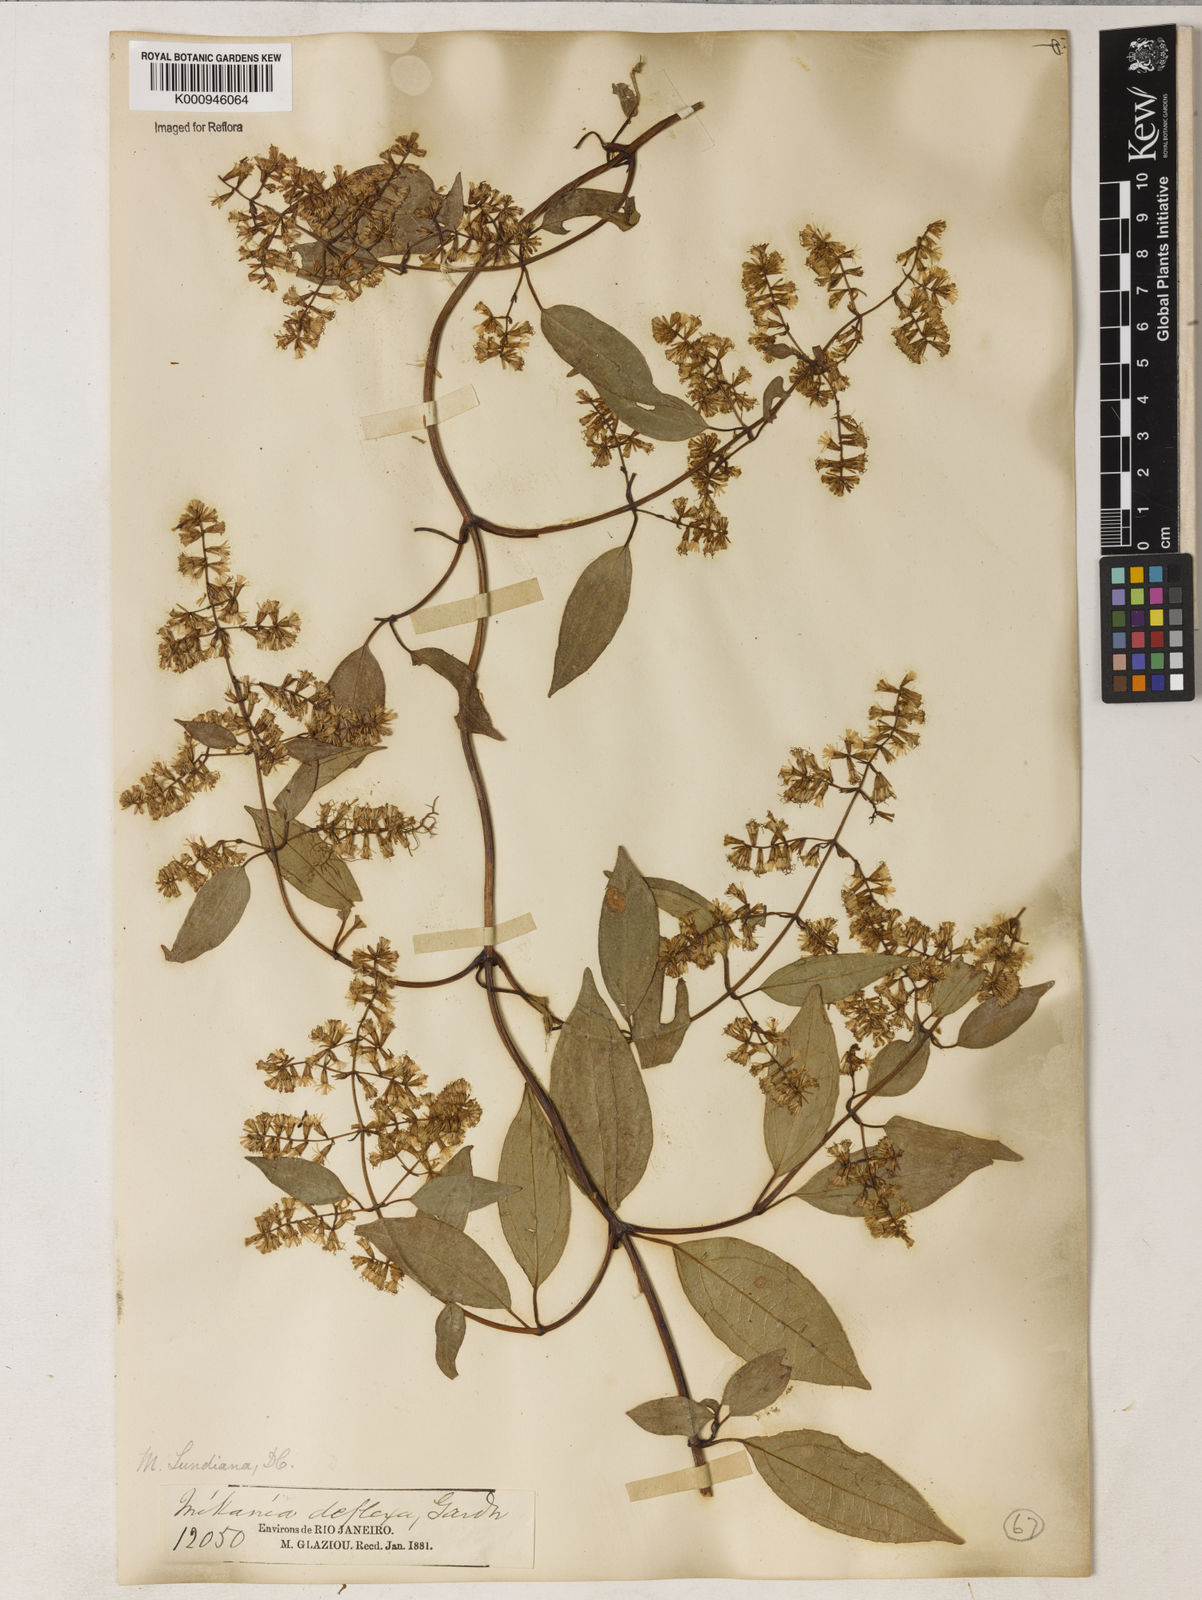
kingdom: Plantae
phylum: Tracheophyta
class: Magnoliopsida
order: Asterales
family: Asteraceae
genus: Mikania
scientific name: Mikania acuminata
